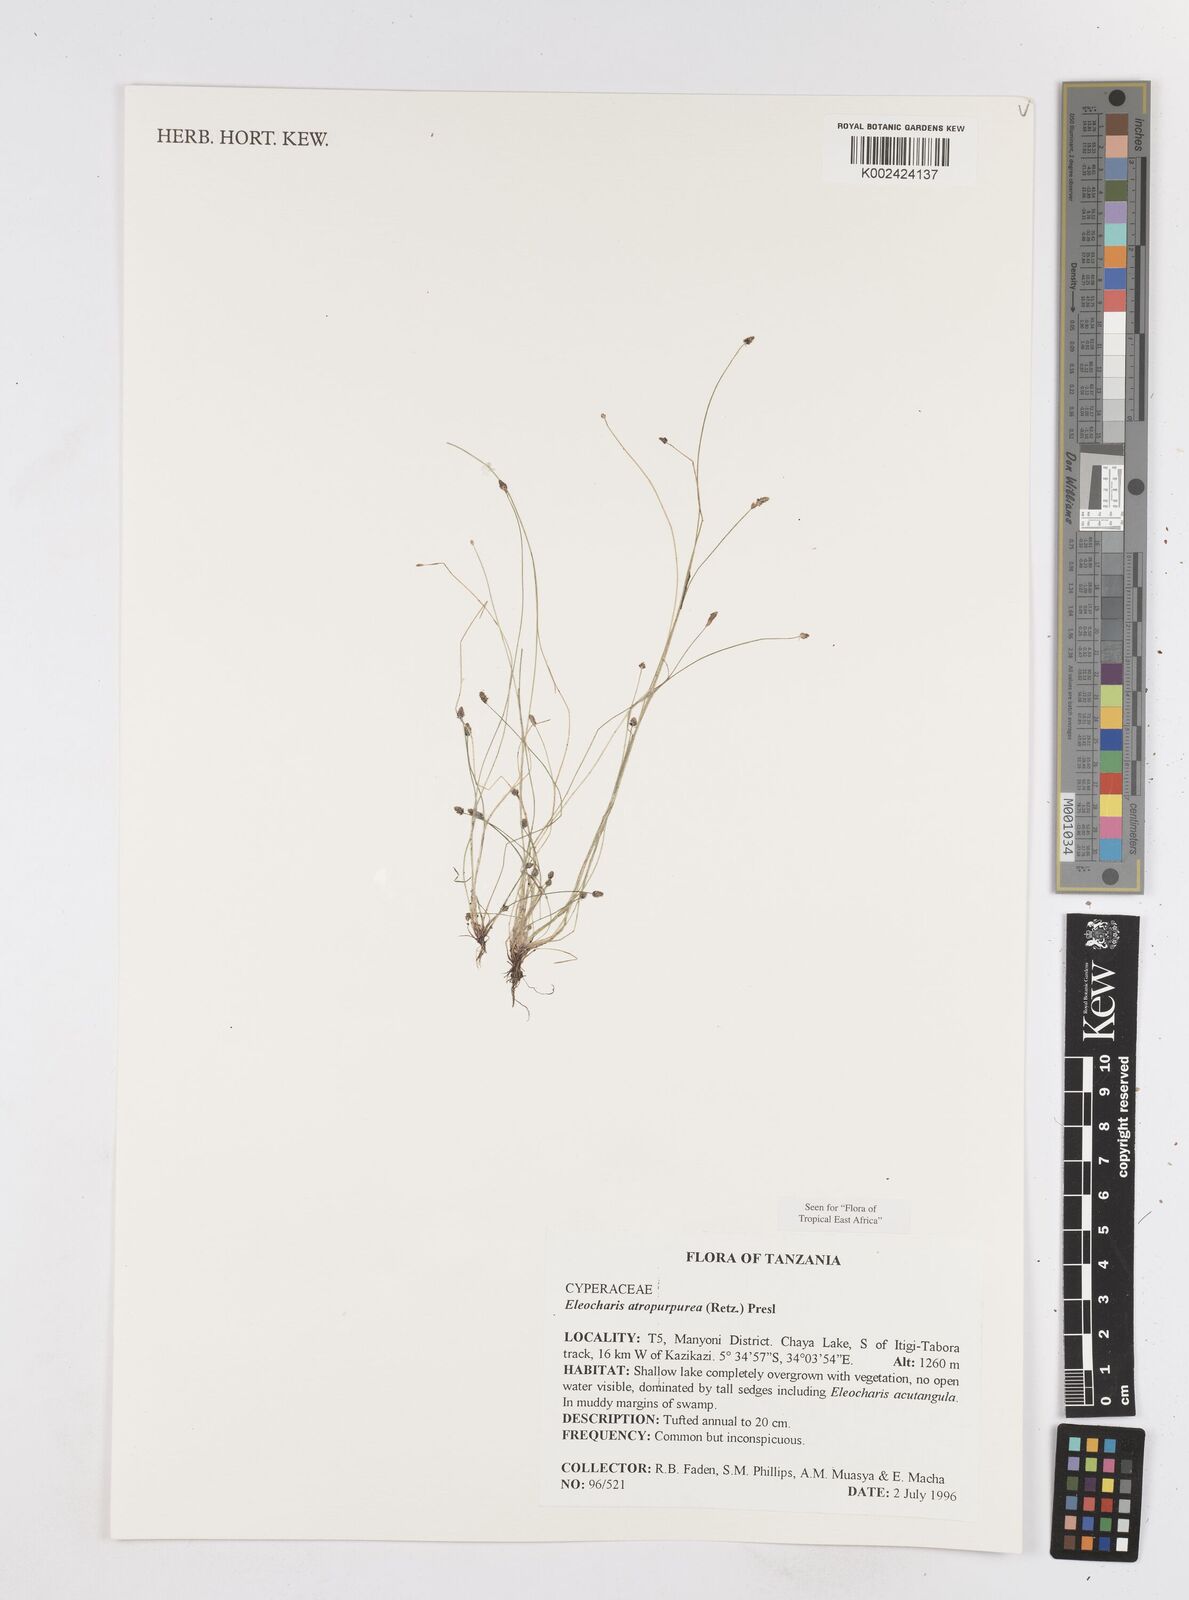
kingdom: Plantae
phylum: Tracheophyta
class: Liliopsida
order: Poales
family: Cyperaceae
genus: Eleocharis
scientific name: Eleocharis atropurpurea
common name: Purple spikerush
